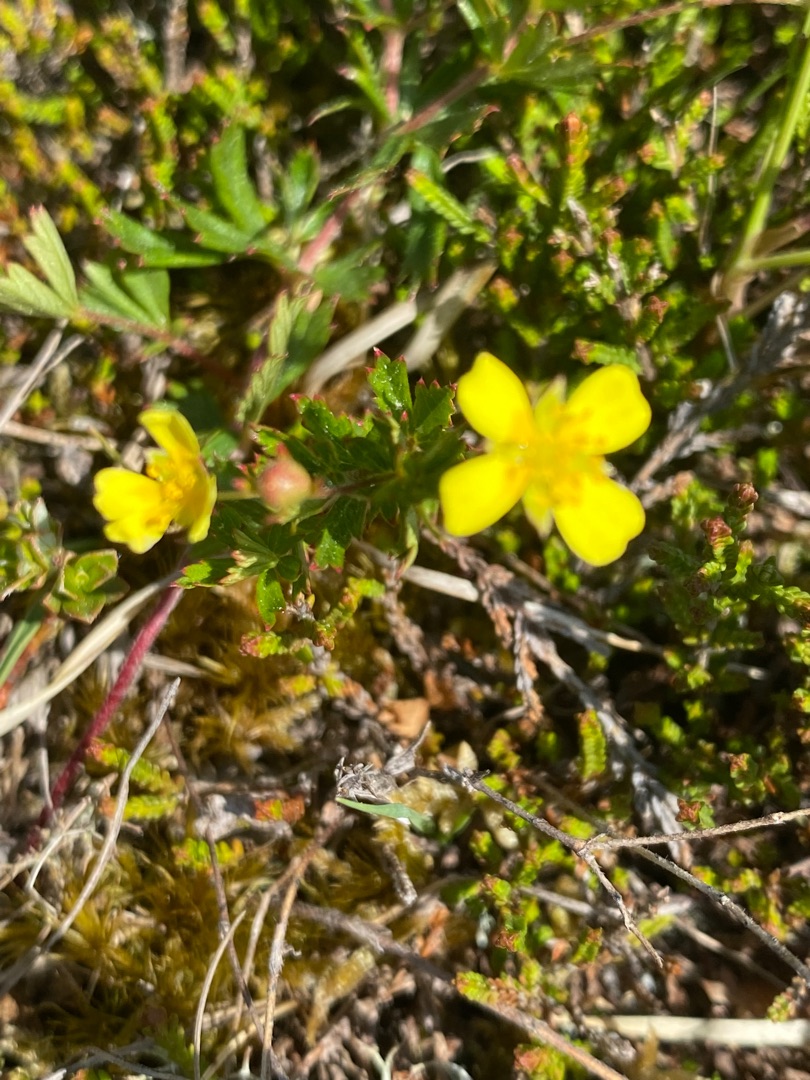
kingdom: Plantae
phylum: Tracheophyta
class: Magnoliopsida
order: Rosales
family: Rosaceae
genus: Potentilla
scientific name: Potentilla erecta
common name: Tormentil
